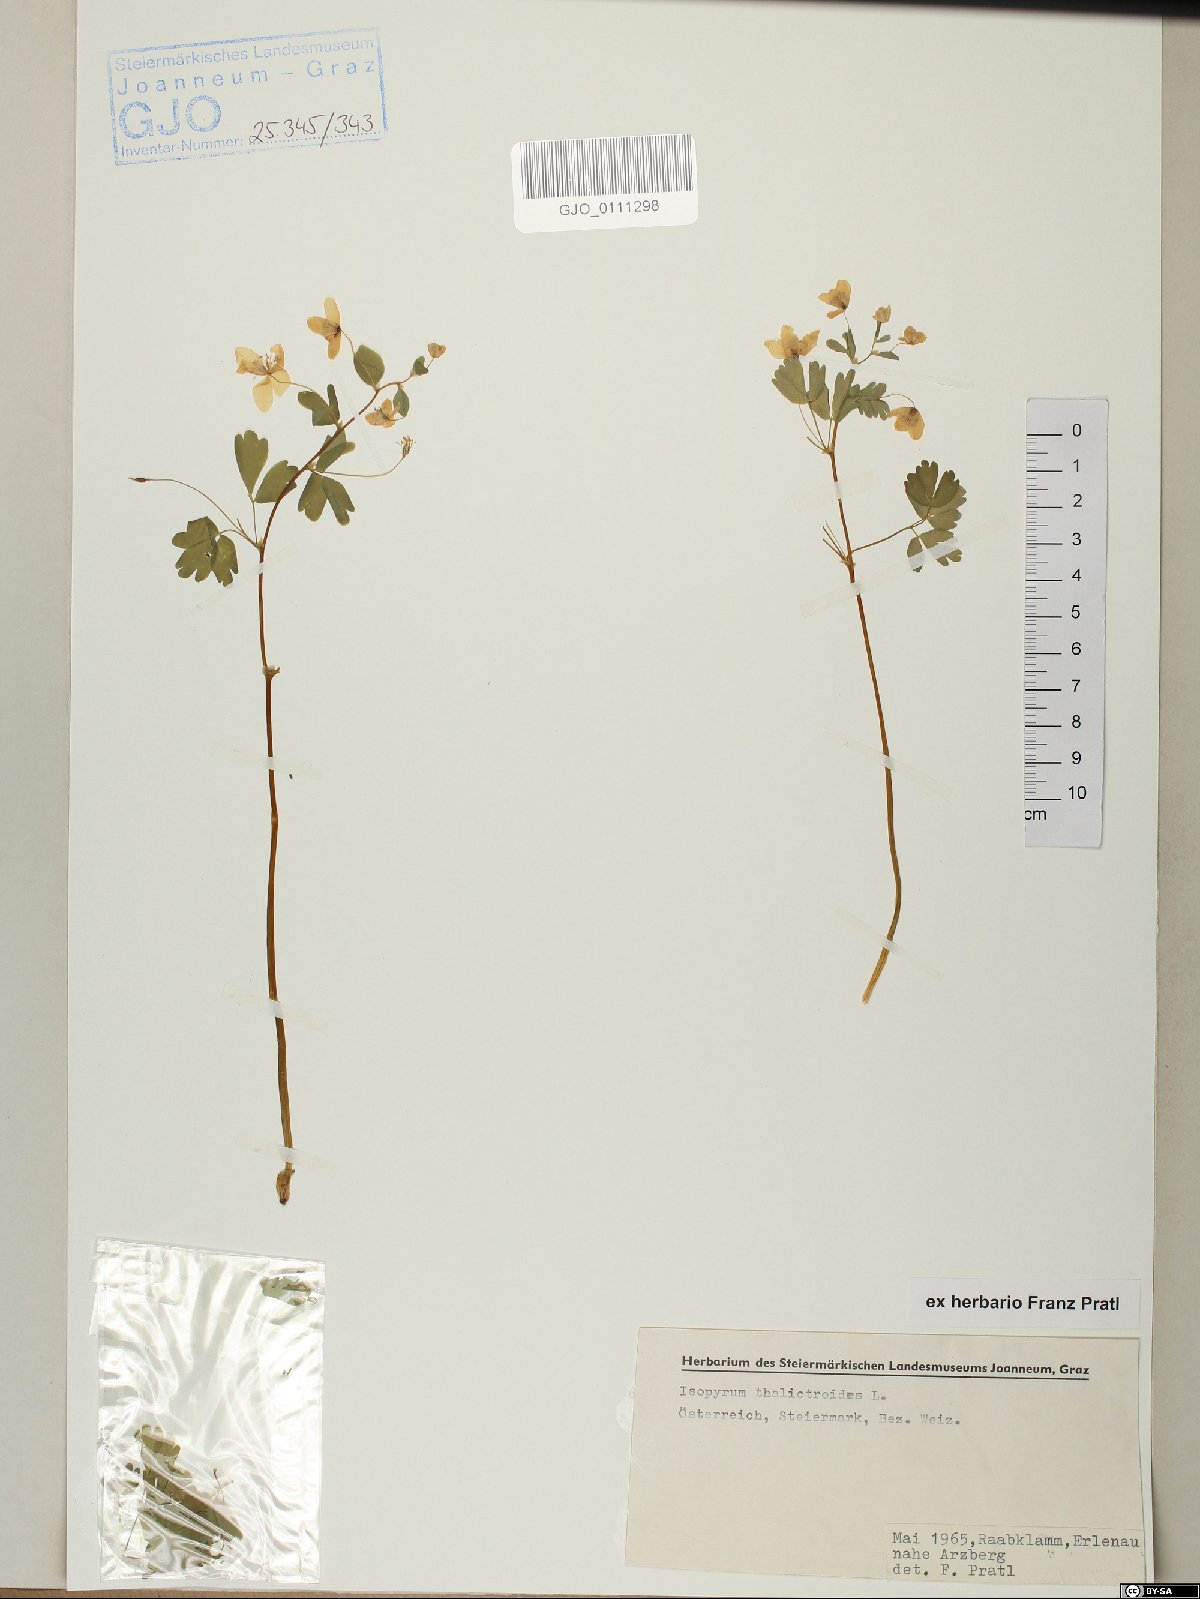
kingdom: Plantae
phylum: Tracheophyta
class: Magnoliopsida
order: Ranunculales
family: Ranunculaceae
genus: Isopyrum
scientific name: Isopyrum thalictroides
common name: Isopyrum
